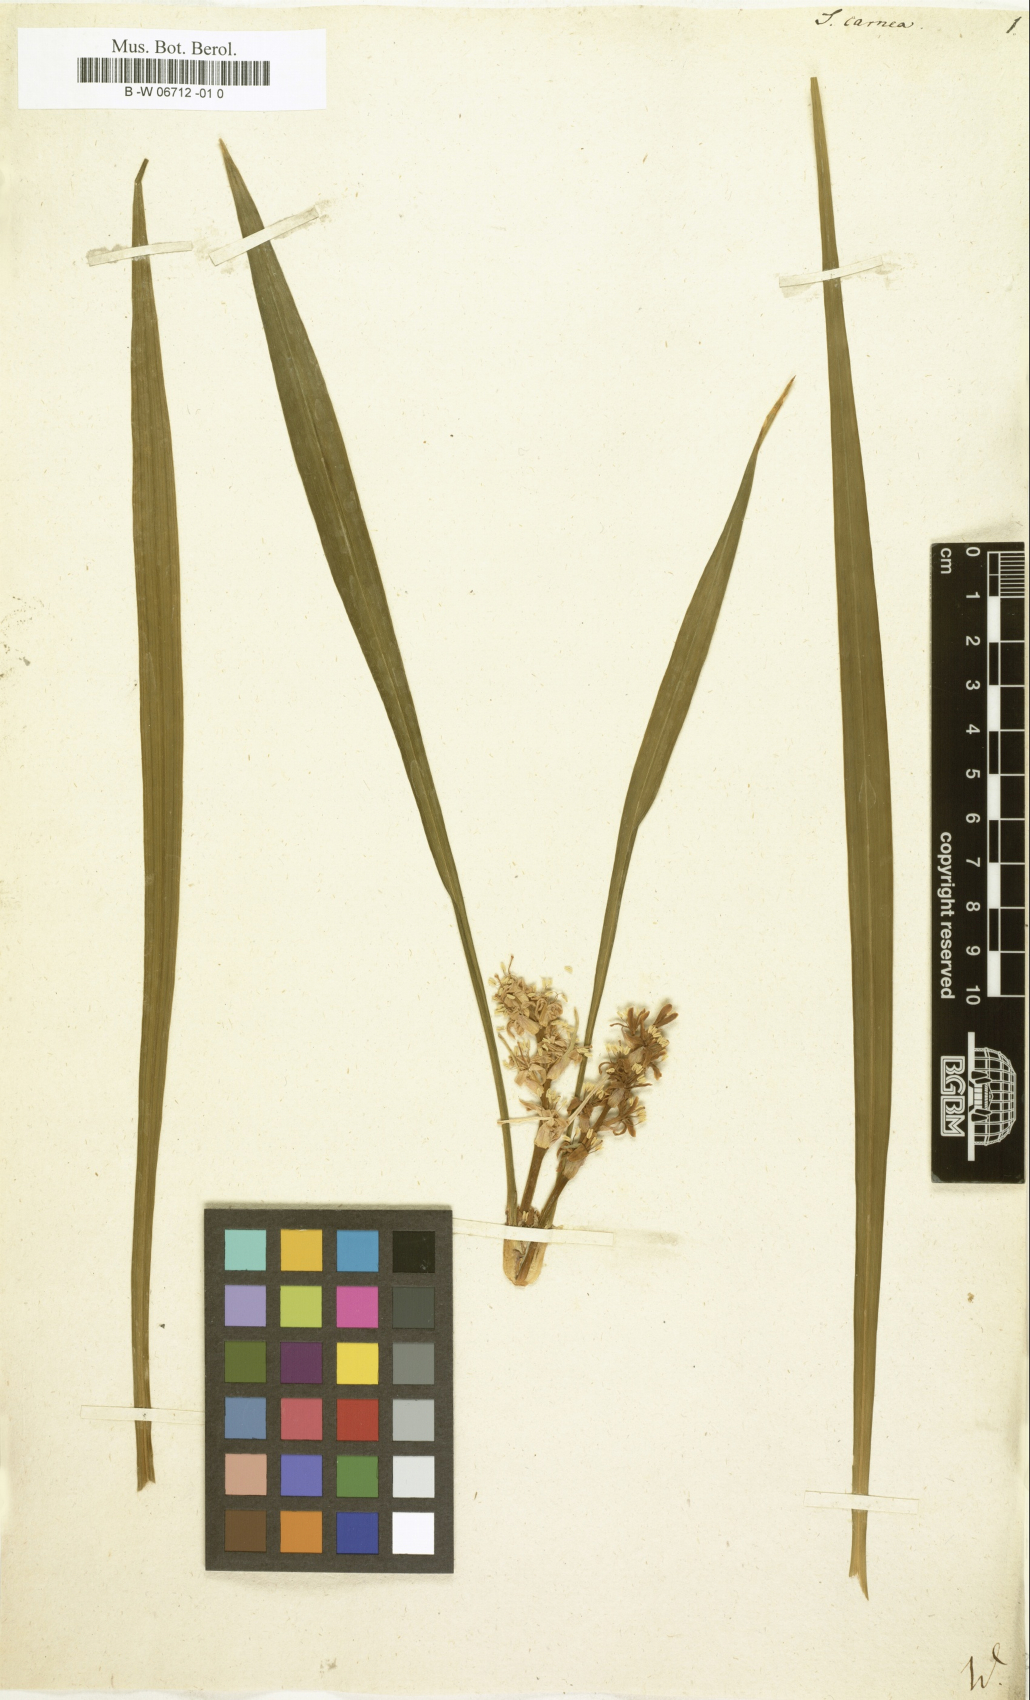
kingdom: Plantae
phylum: Tracheophyta
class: Liliopsida
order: Asparagales
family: Asparagaceae
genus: Reineckea
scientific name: Reineckea carnea
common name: Reineckea
